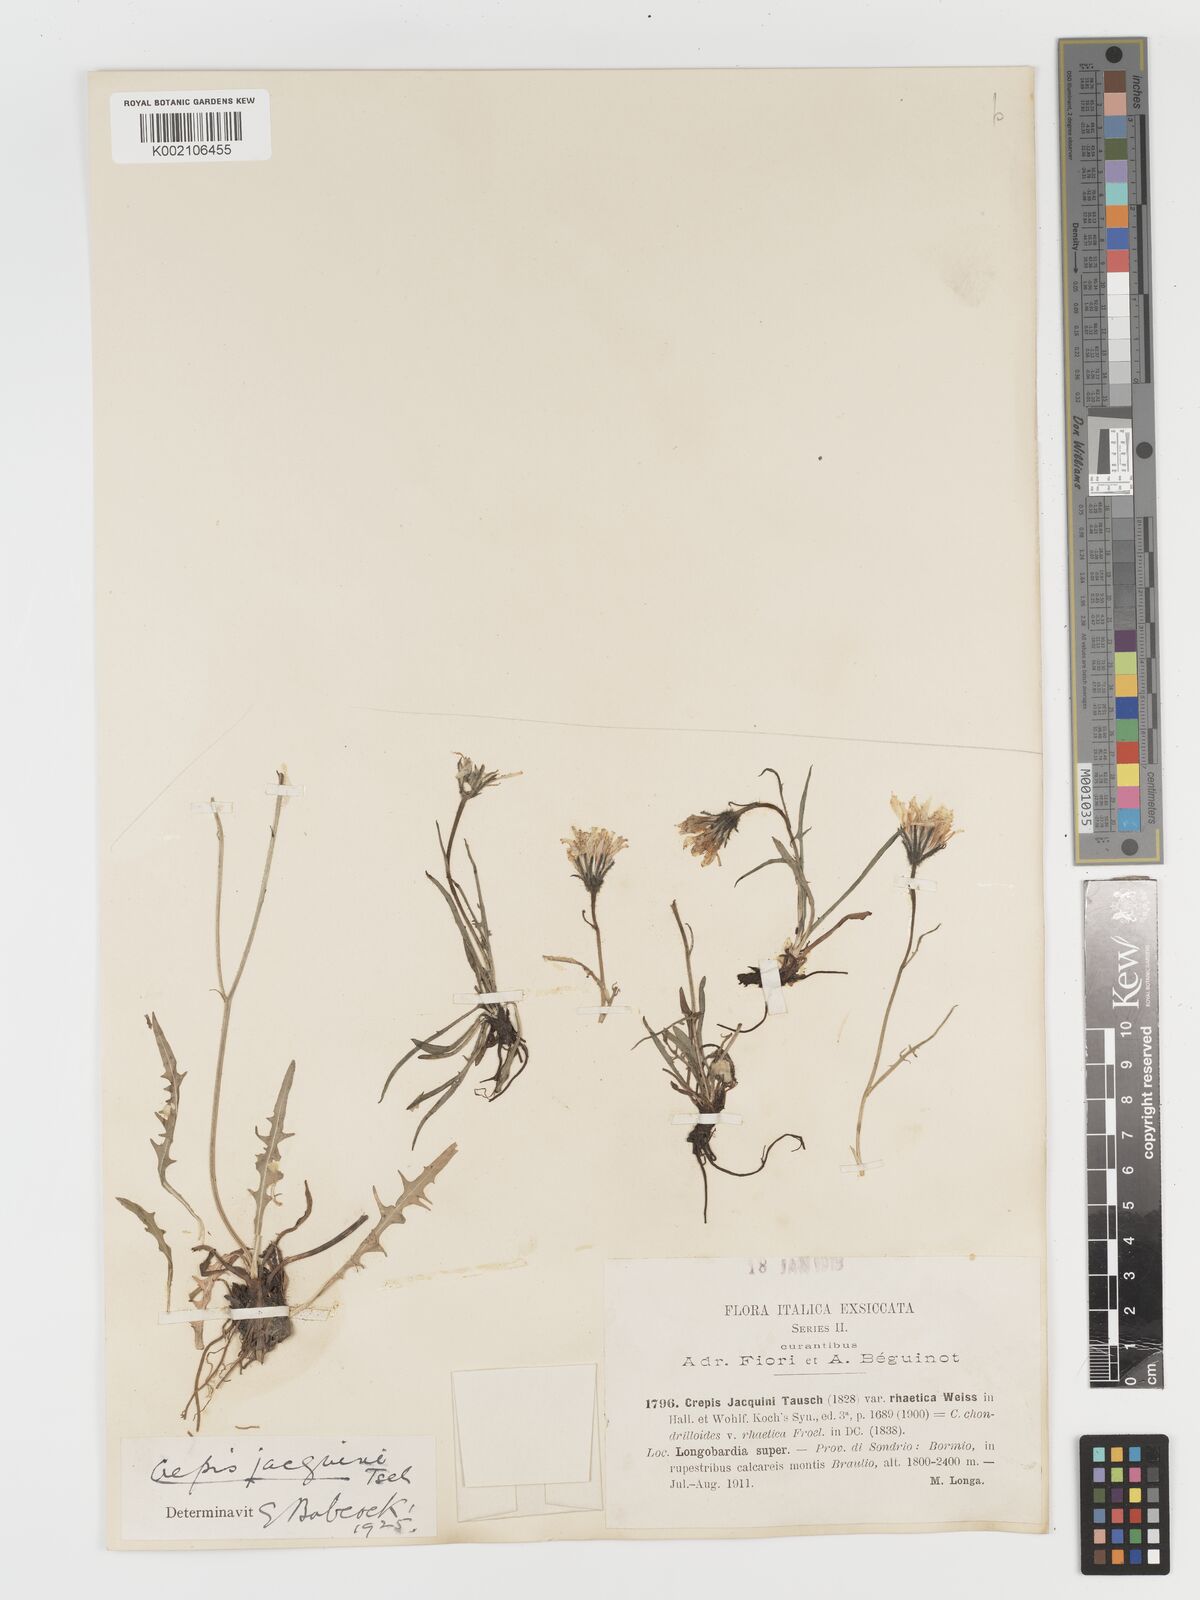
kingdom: Plantae
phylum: Tracheophyta
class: Magnoliopsida
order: Asterales
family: Asteraceae
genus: Crepis
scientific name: Crepis jacquinii
